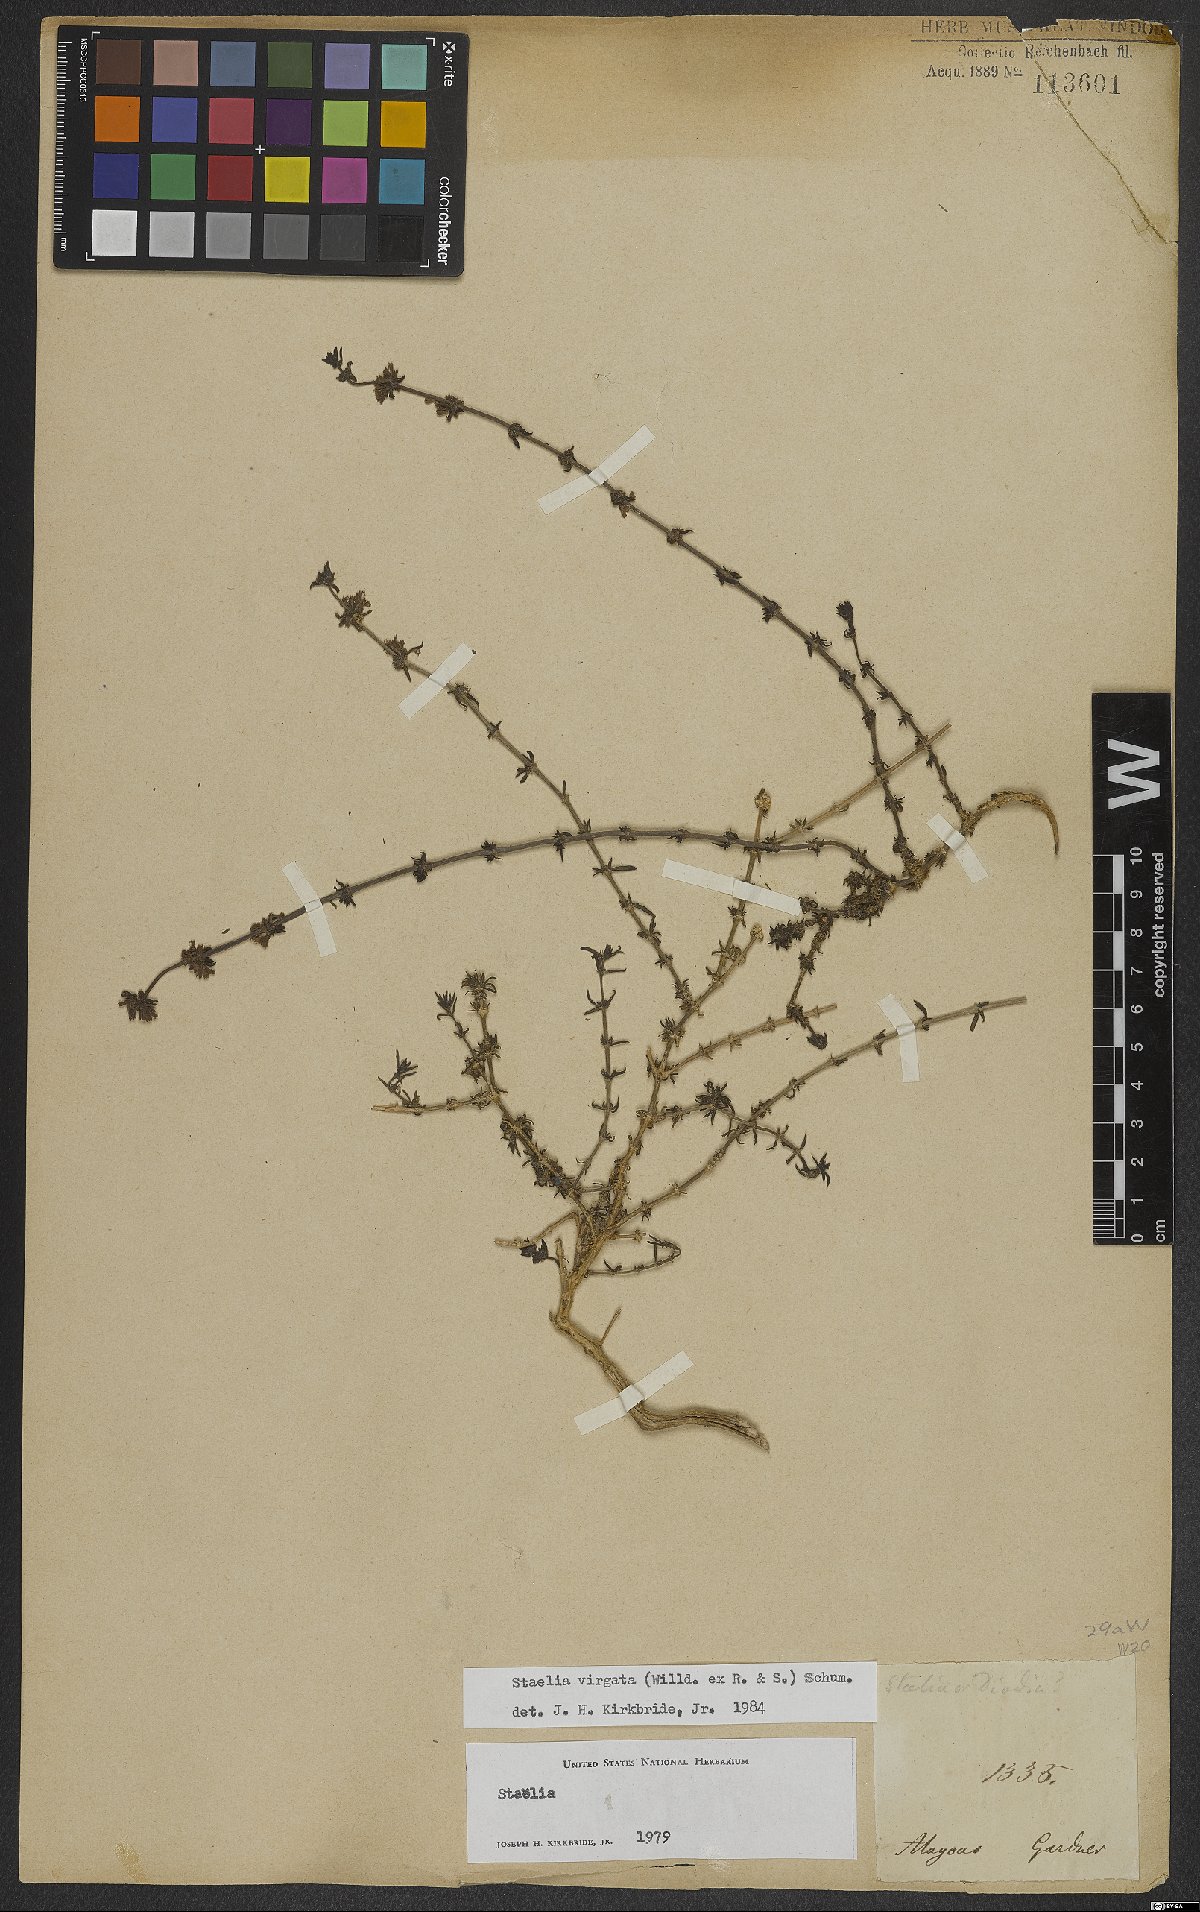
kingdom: Plantae
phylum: Tracheophyta
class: Magnoliopsida
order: Gentianales
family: Rubiaceae
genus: Staelia
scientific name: Staelia virgata
